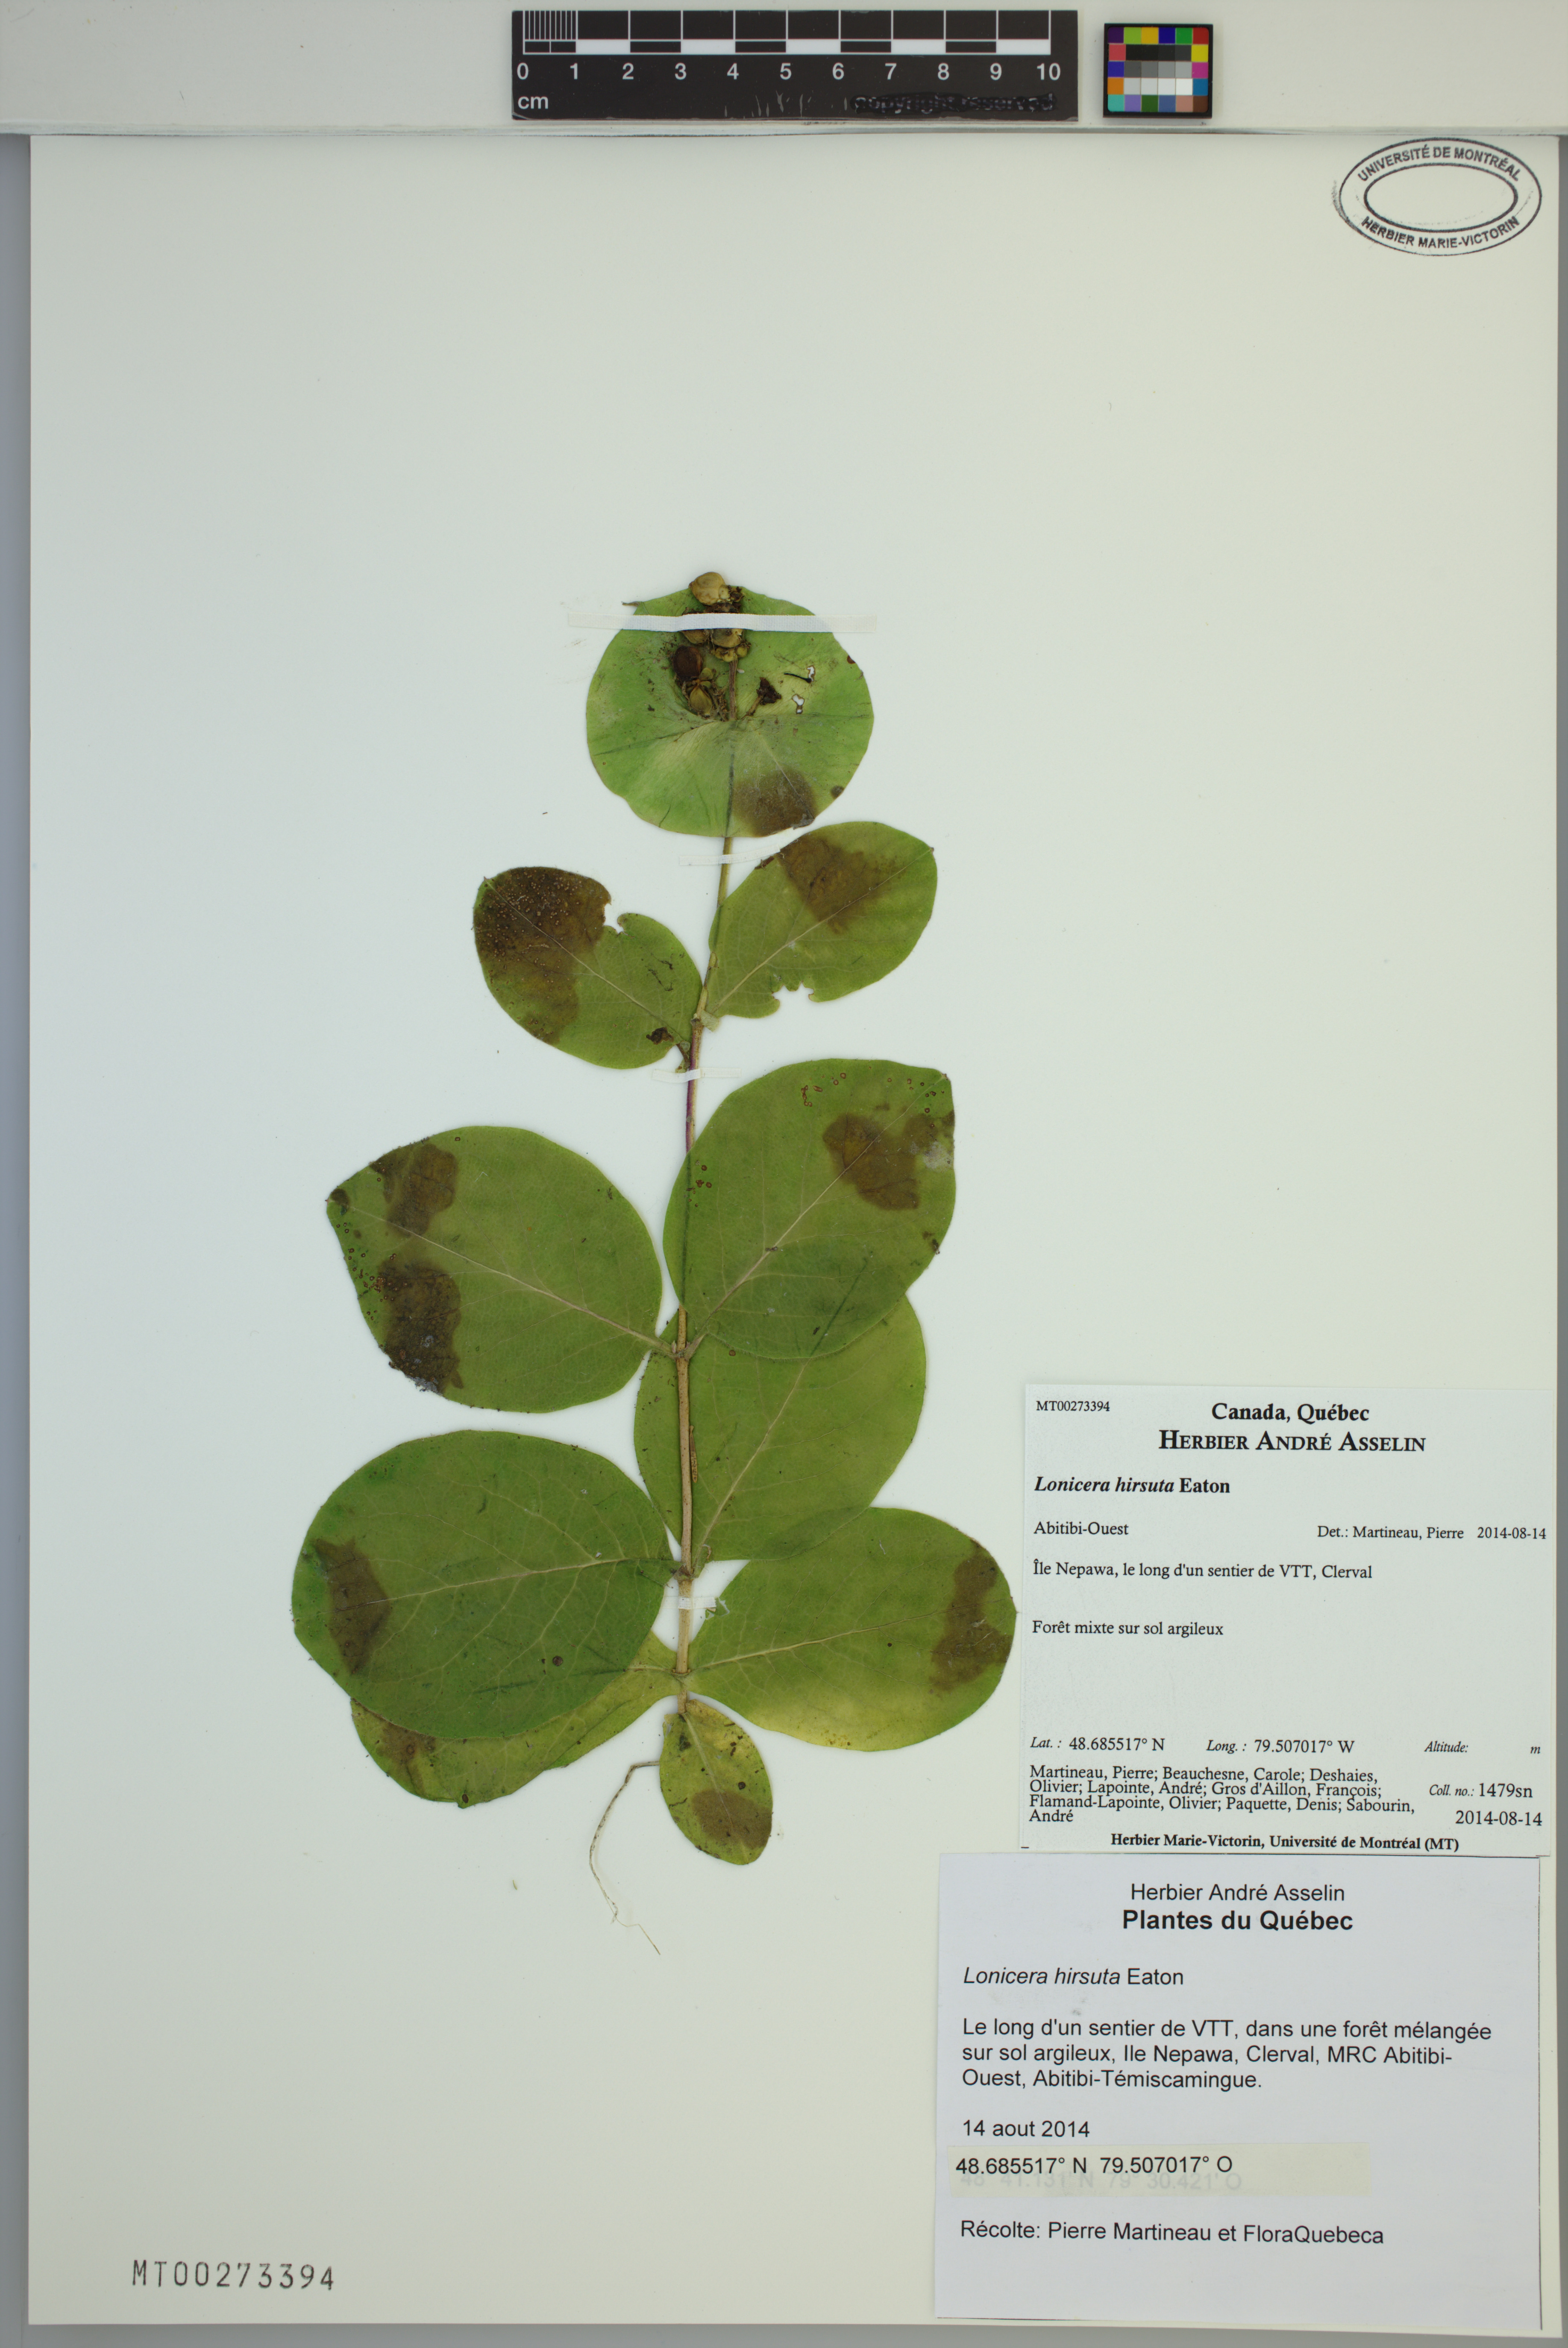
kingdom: Plantae
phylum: Tracheophyta
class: Magnoliopsida
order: Dipsacales
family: Caprifoliaceae
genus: Lonicera
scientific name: Lonicera hirsuta
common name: Hairy honeysuckle
